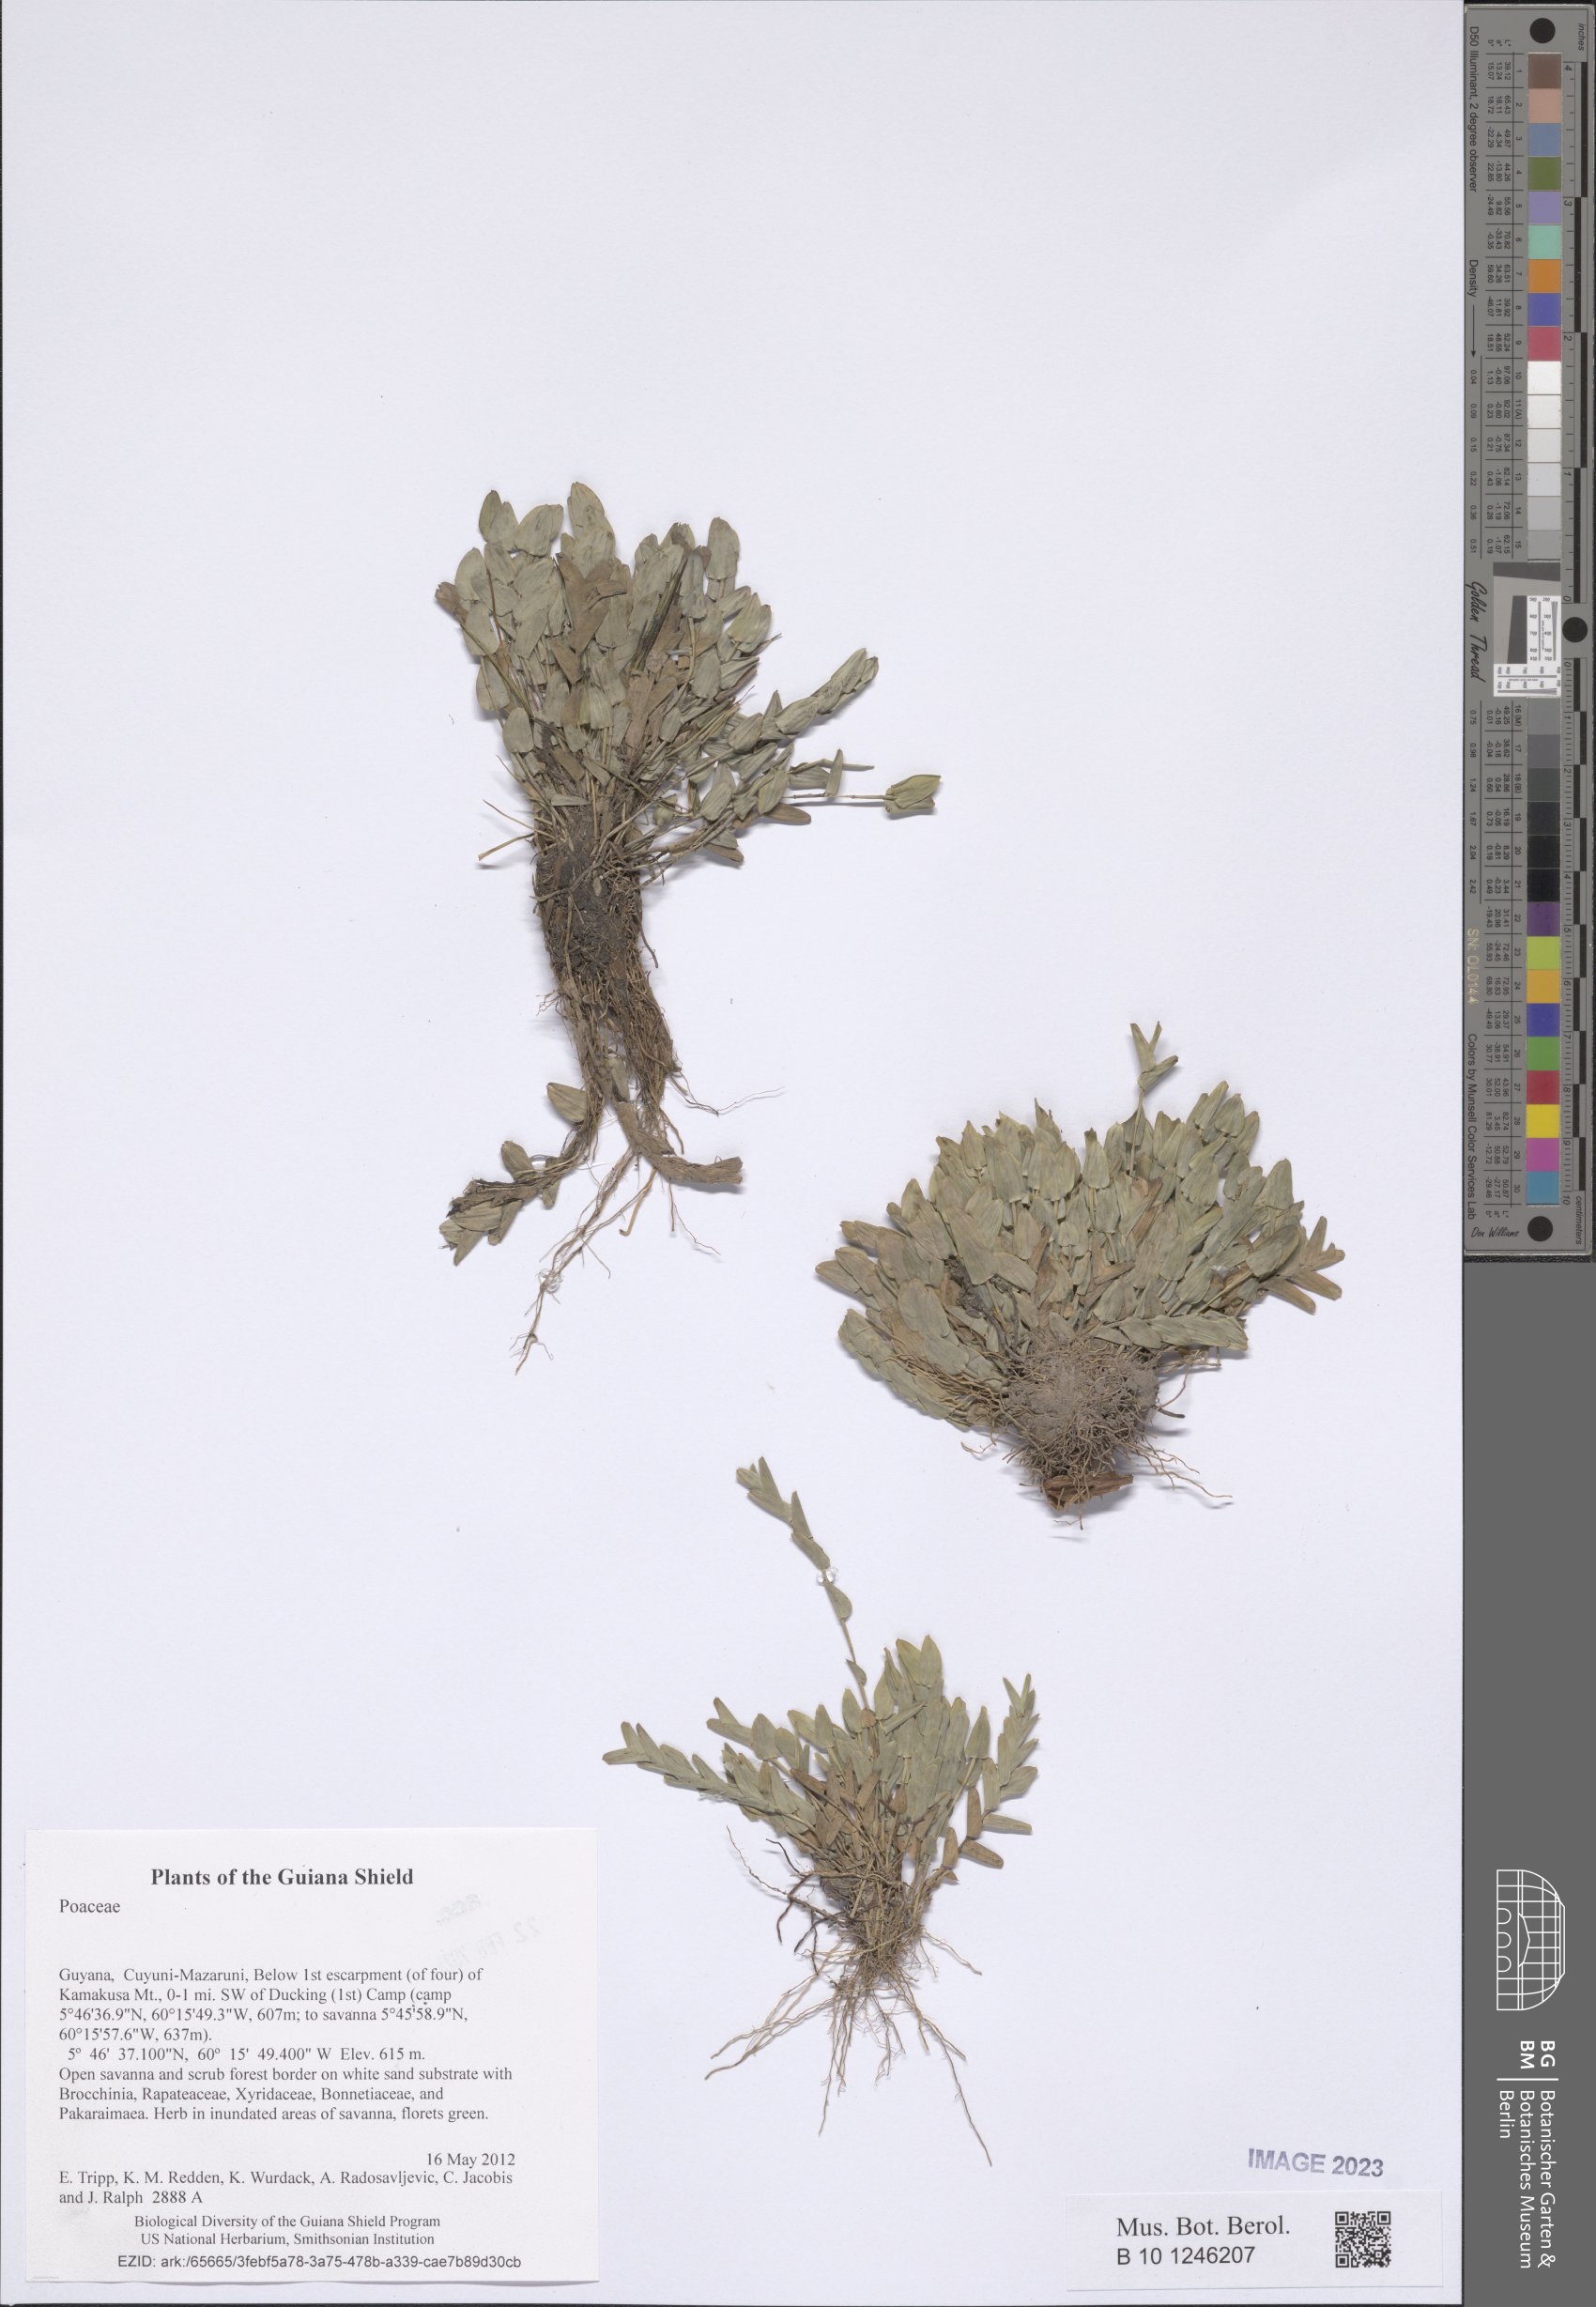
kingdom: Plantae
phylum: Tracheophyta
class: Liliopsida
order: Poales
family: Poaceae
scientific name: Poaceae
